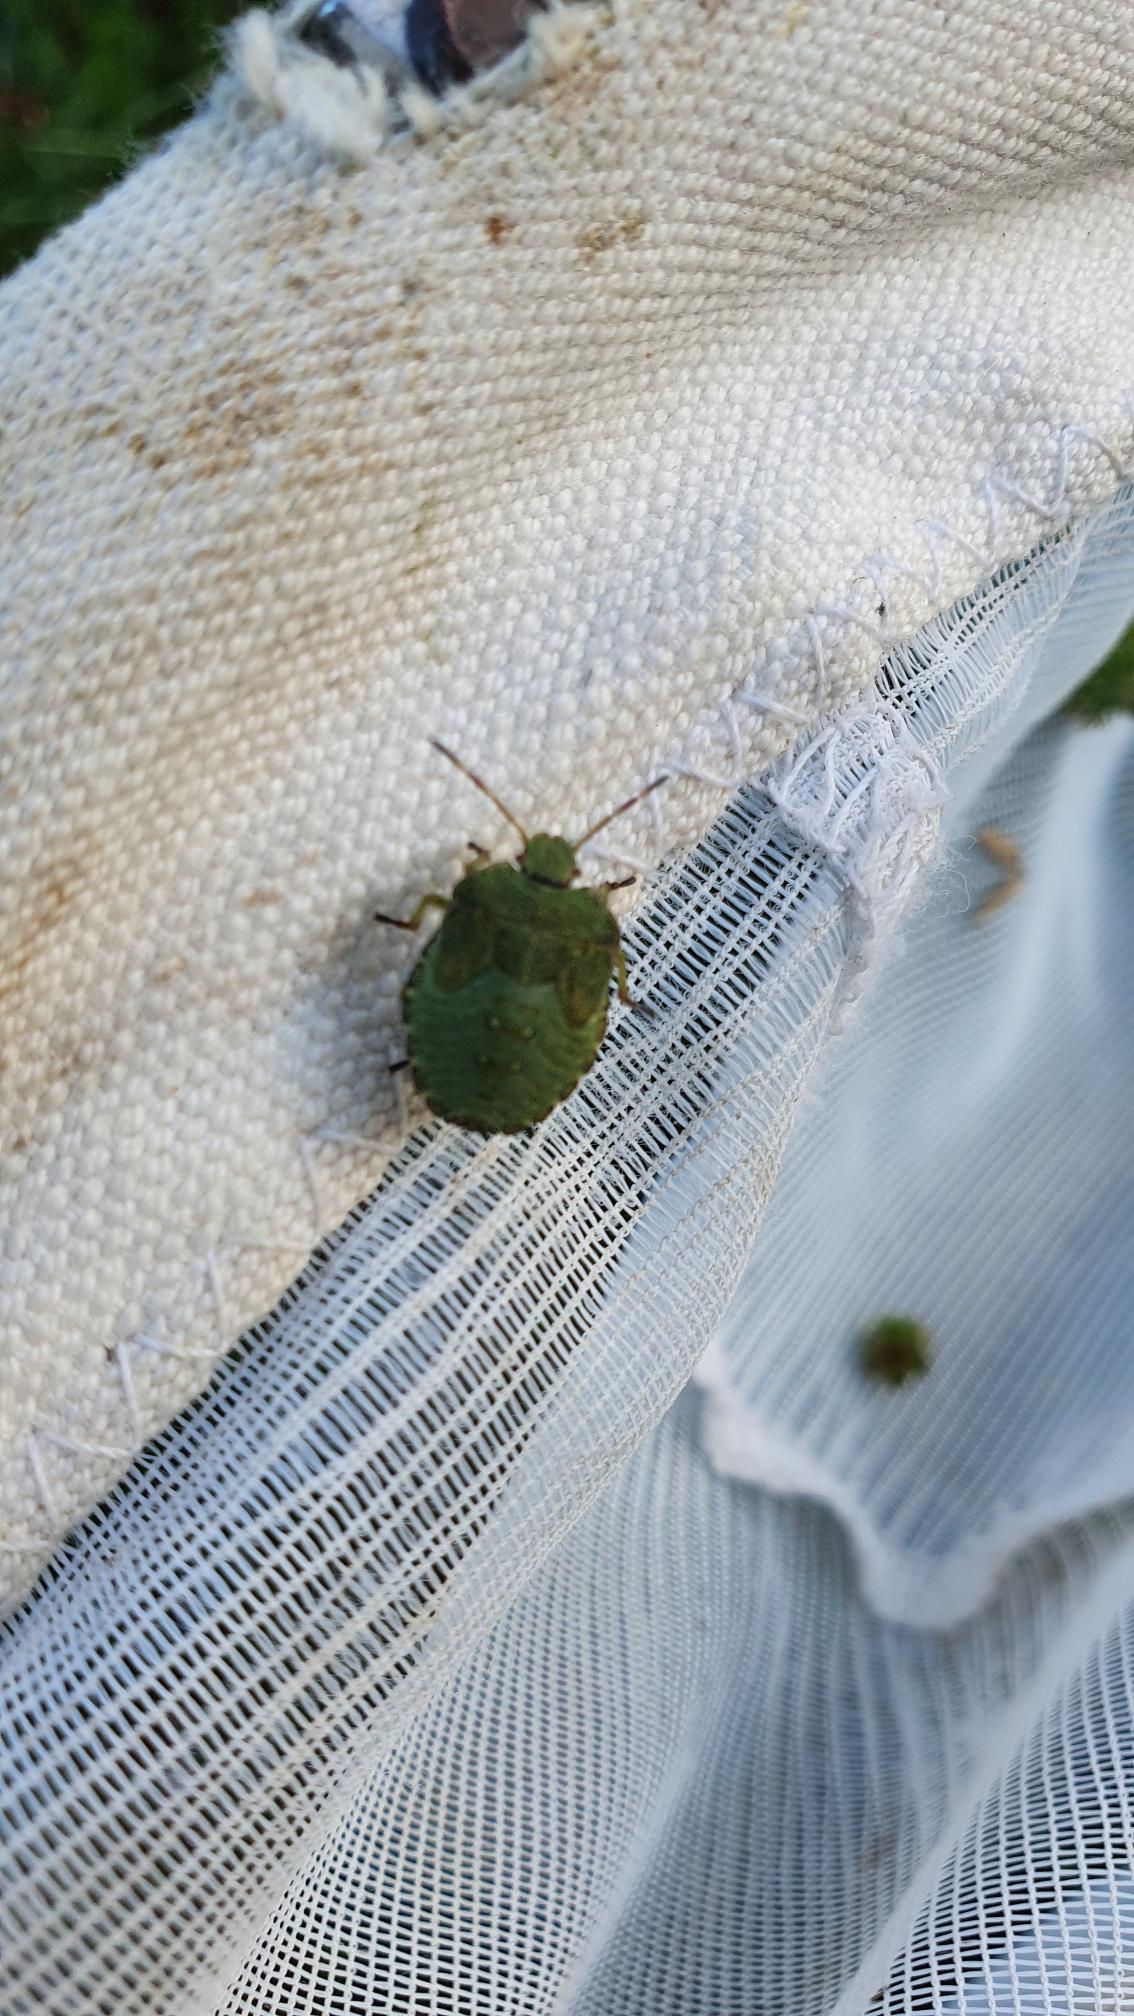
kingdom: Animalia
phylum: Arthropoda
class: Insecta
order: Hemiptera
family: Pentatomidae
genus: Palomena
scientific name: Palomena prasina
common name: Grøn bredtæge
